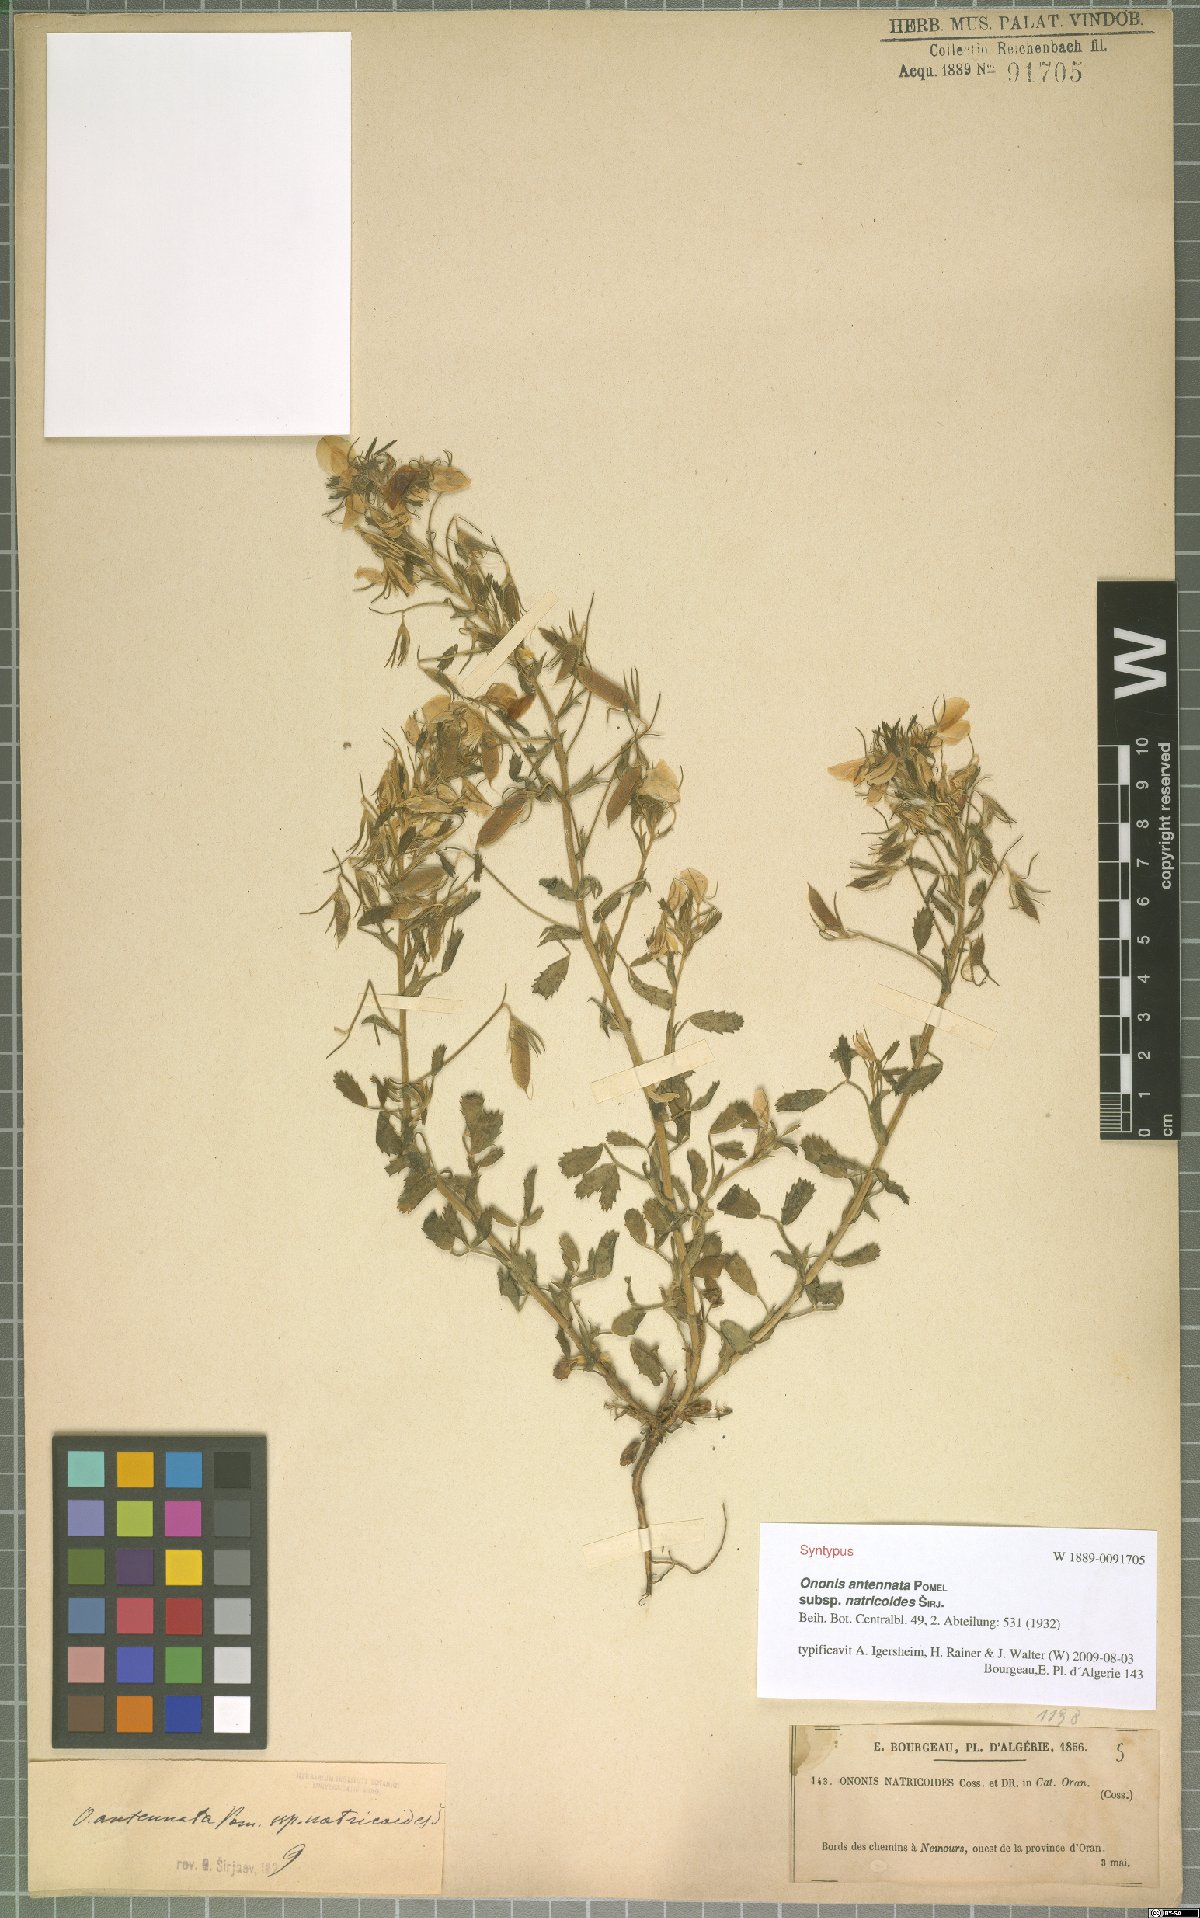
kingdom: Plantae
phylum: Tracheophyta
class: Magnoliopsida
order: Fabales
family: Fabaceae
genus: Ononis
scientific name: Ononis antennata
